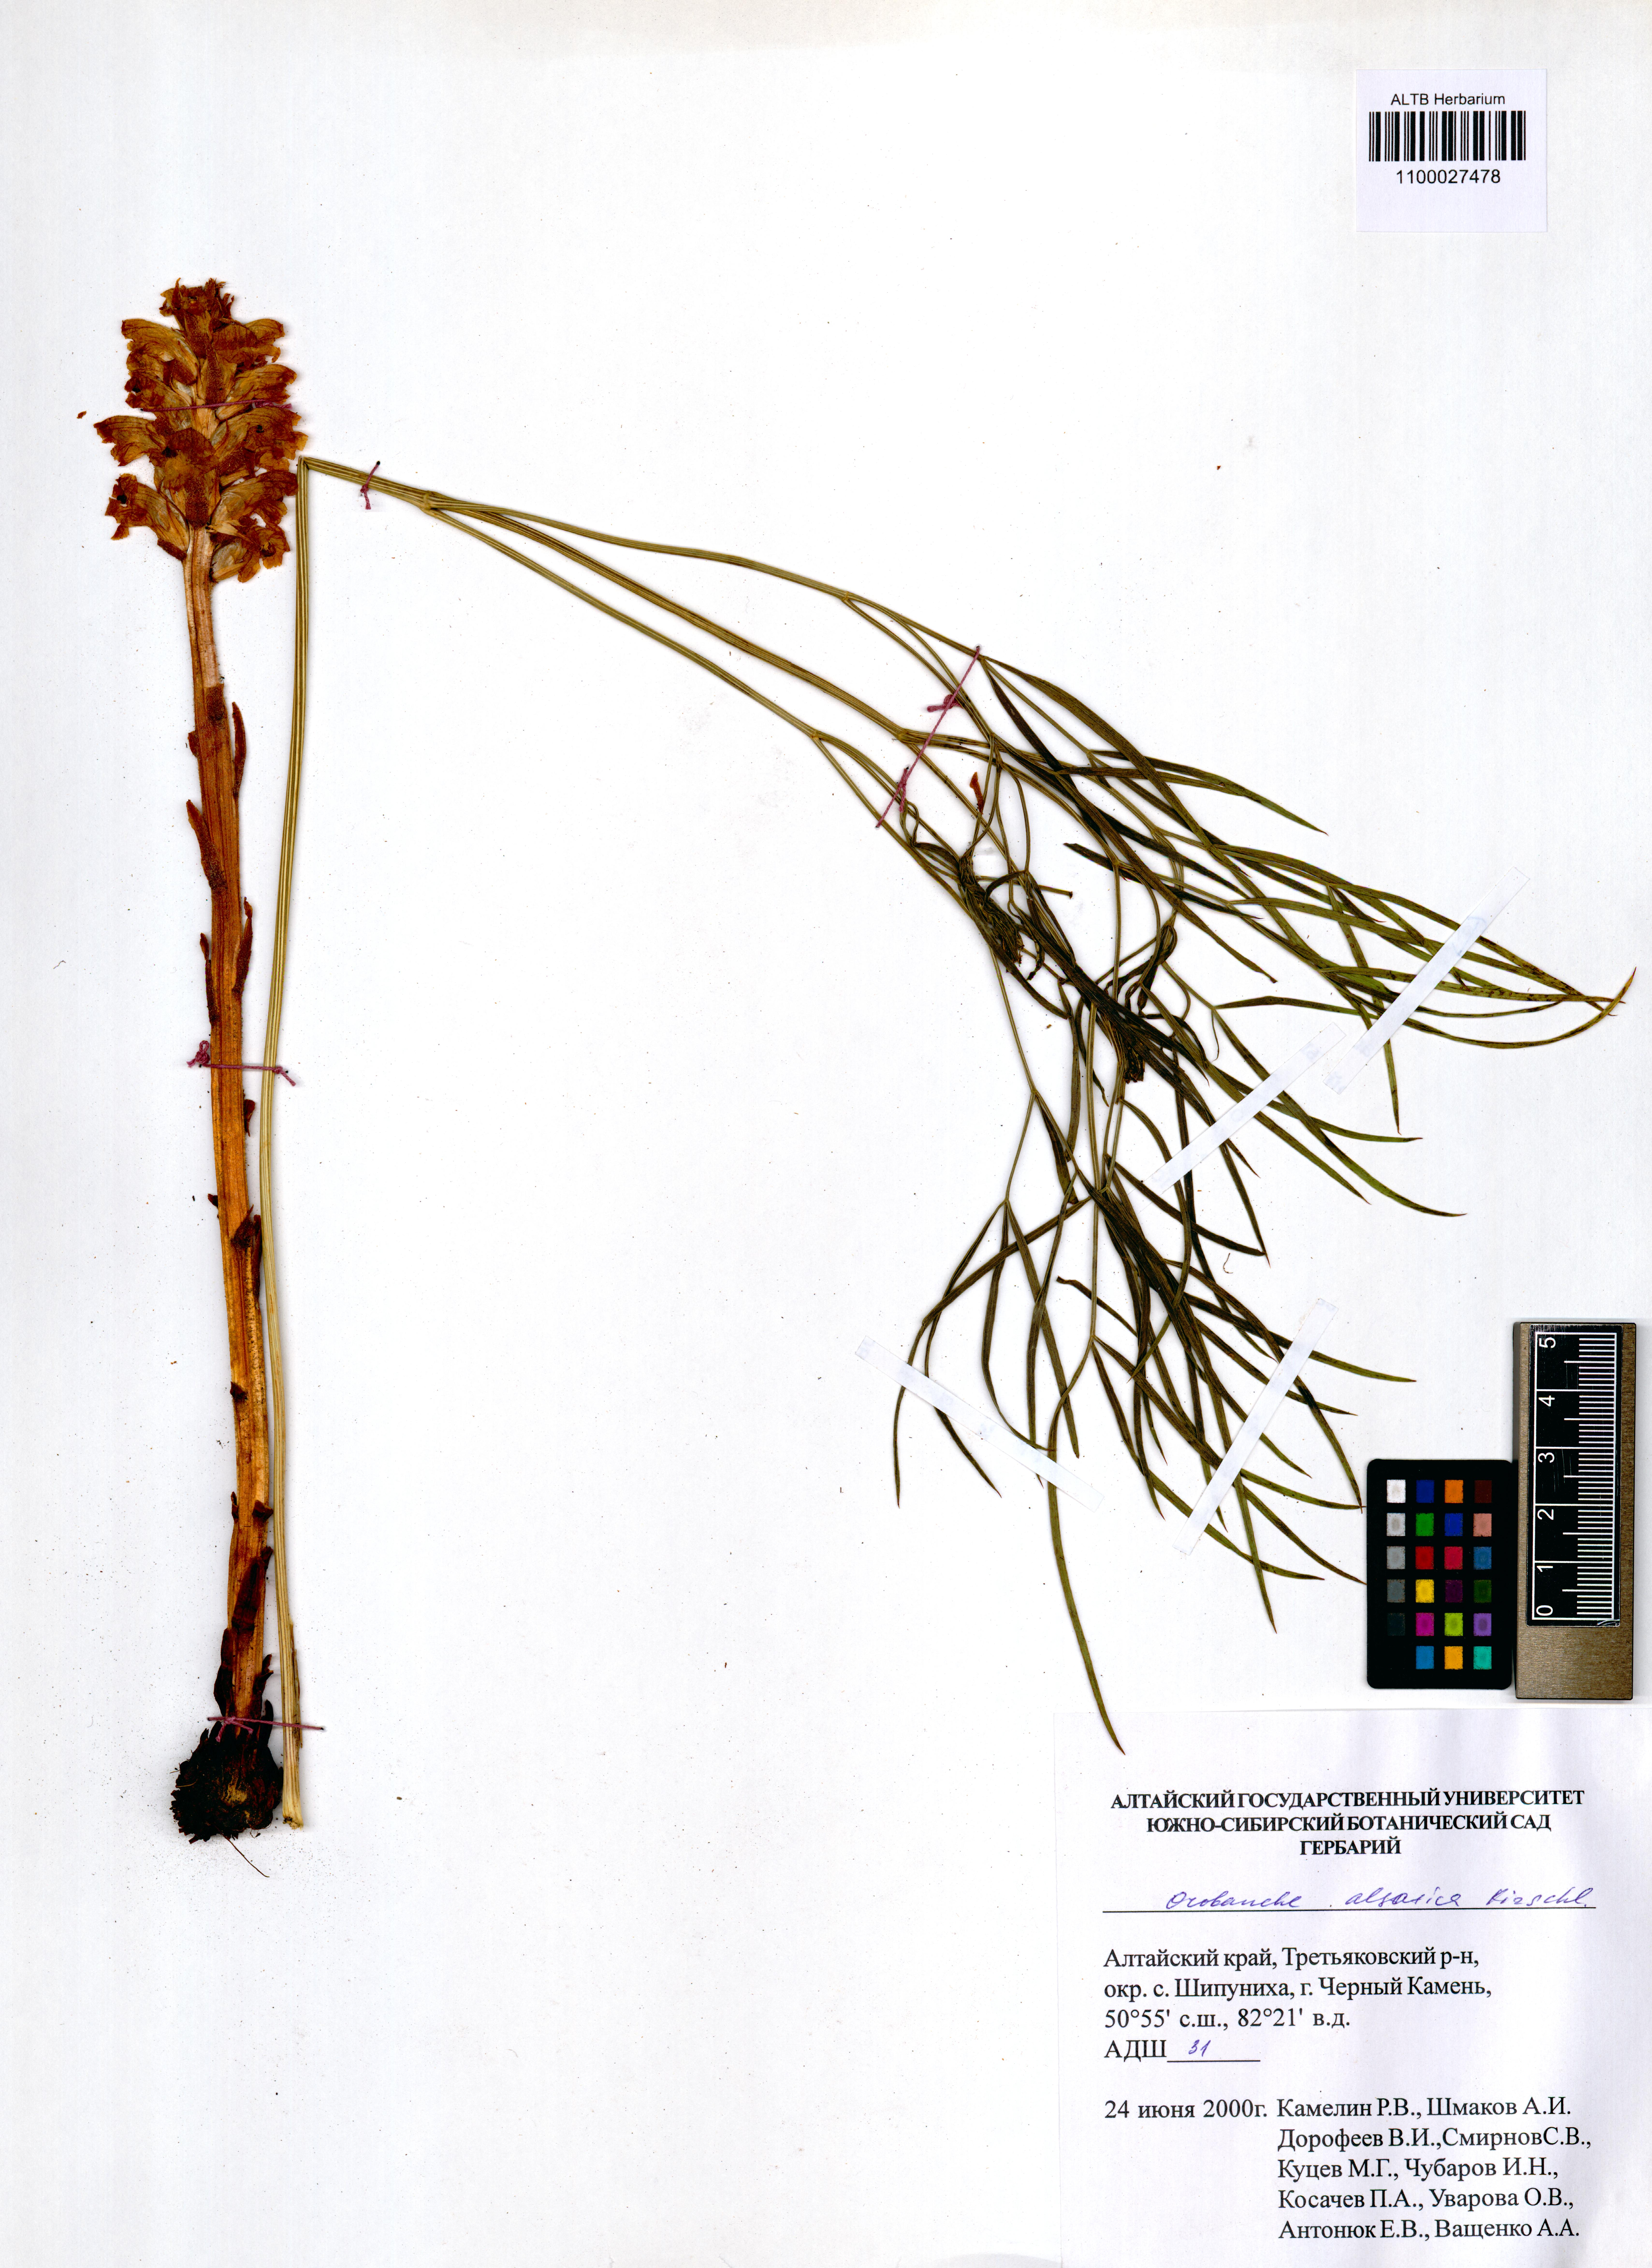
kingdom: Plantae
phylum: Tracheophyta
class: Magnoliopsida
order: Lamiales
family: Orobanchaceae
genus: Orobanche
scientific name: Orobanche alsatica
